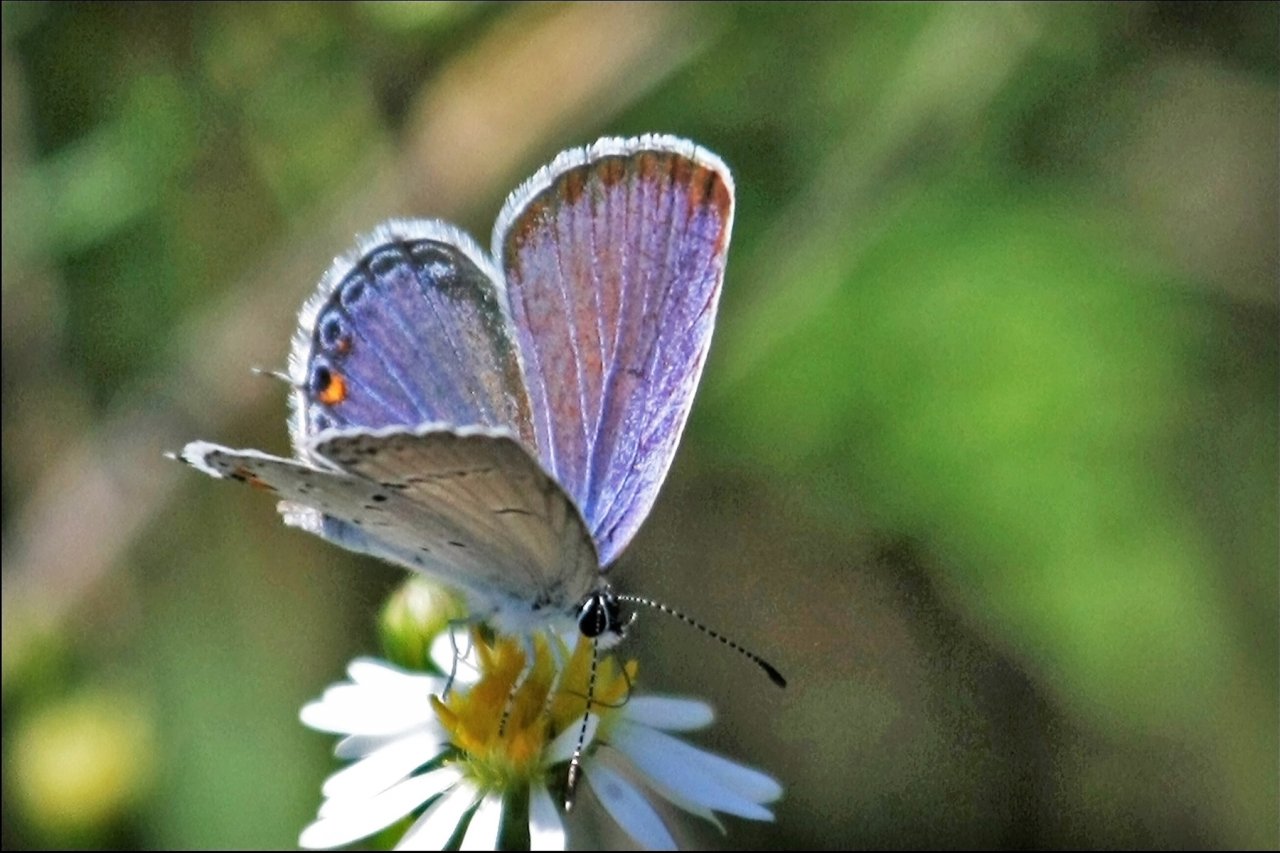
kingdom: Animalia
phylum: Arthropoda
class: Insecta
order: Lepidoptera
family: Lycaenidae
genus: Elkalyce
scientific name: Elkalyce comyntas
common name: Eastern Tailed-Blue
